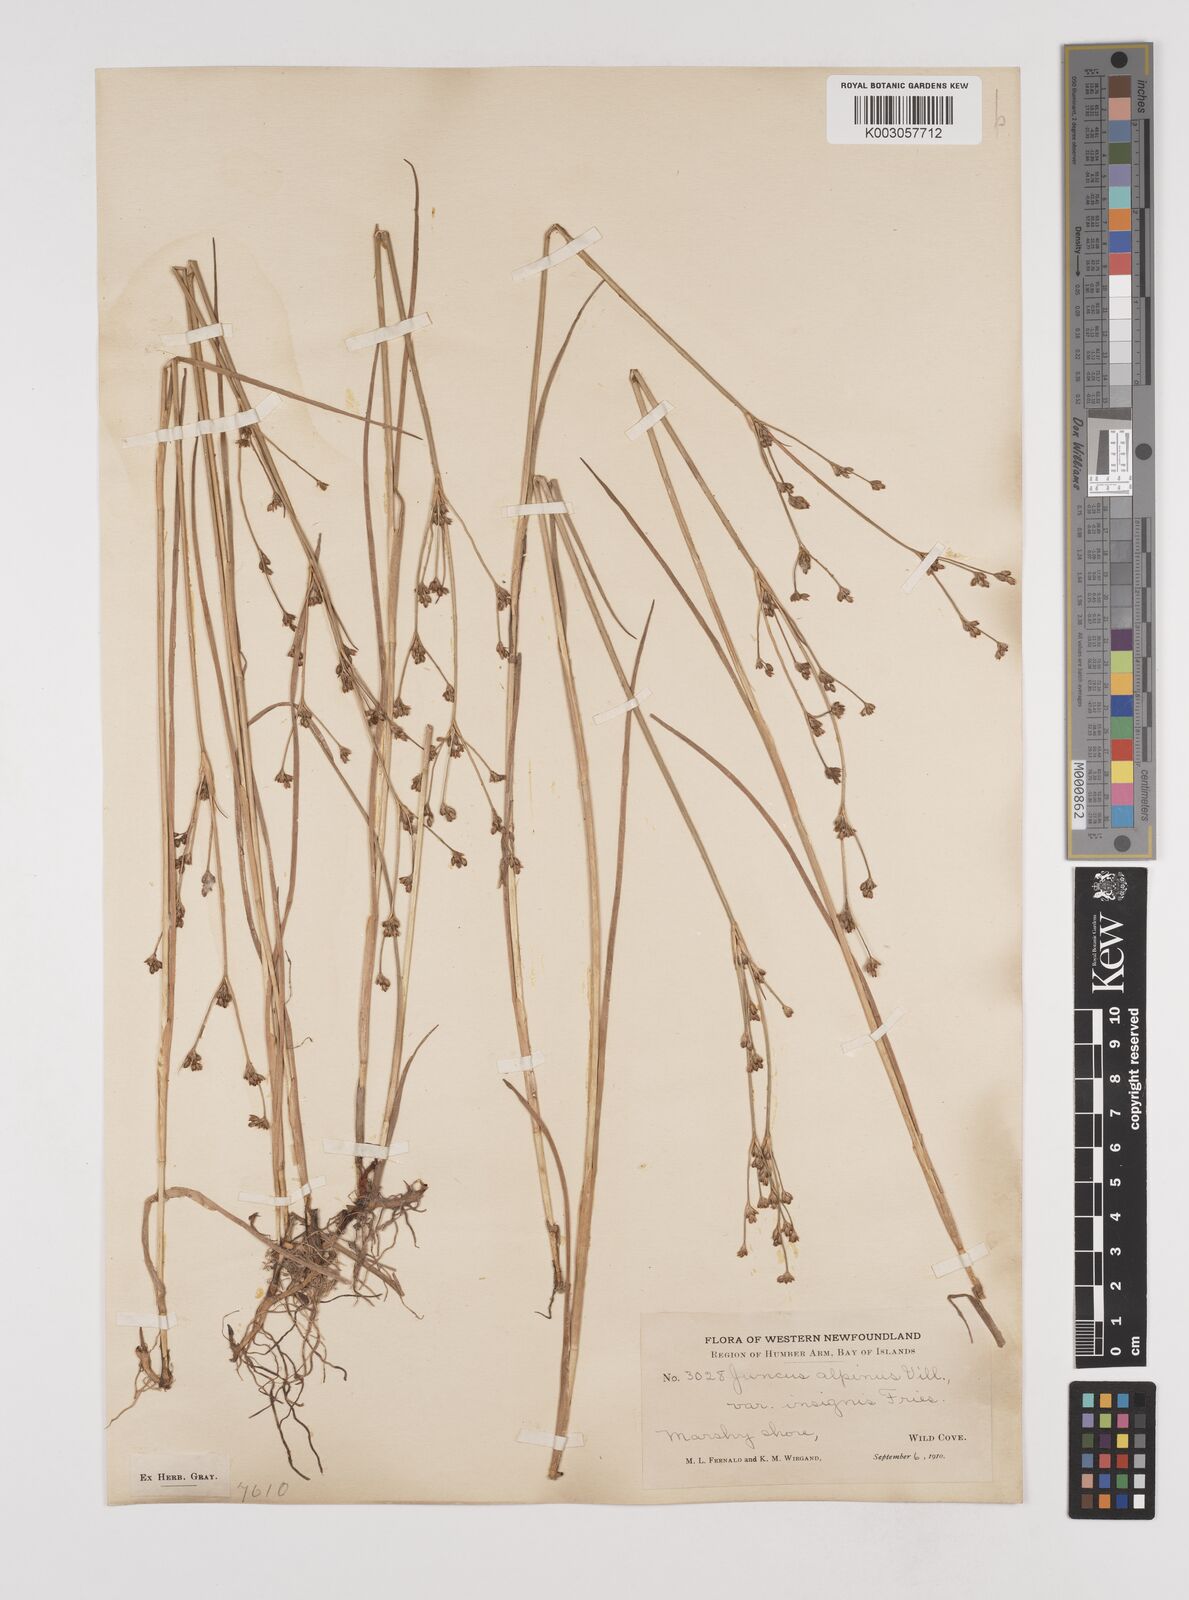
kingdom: Plantae
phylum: Tracheophyta
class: Liliopsida
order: Poales
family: Juncaceae
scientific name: Juncaceae
